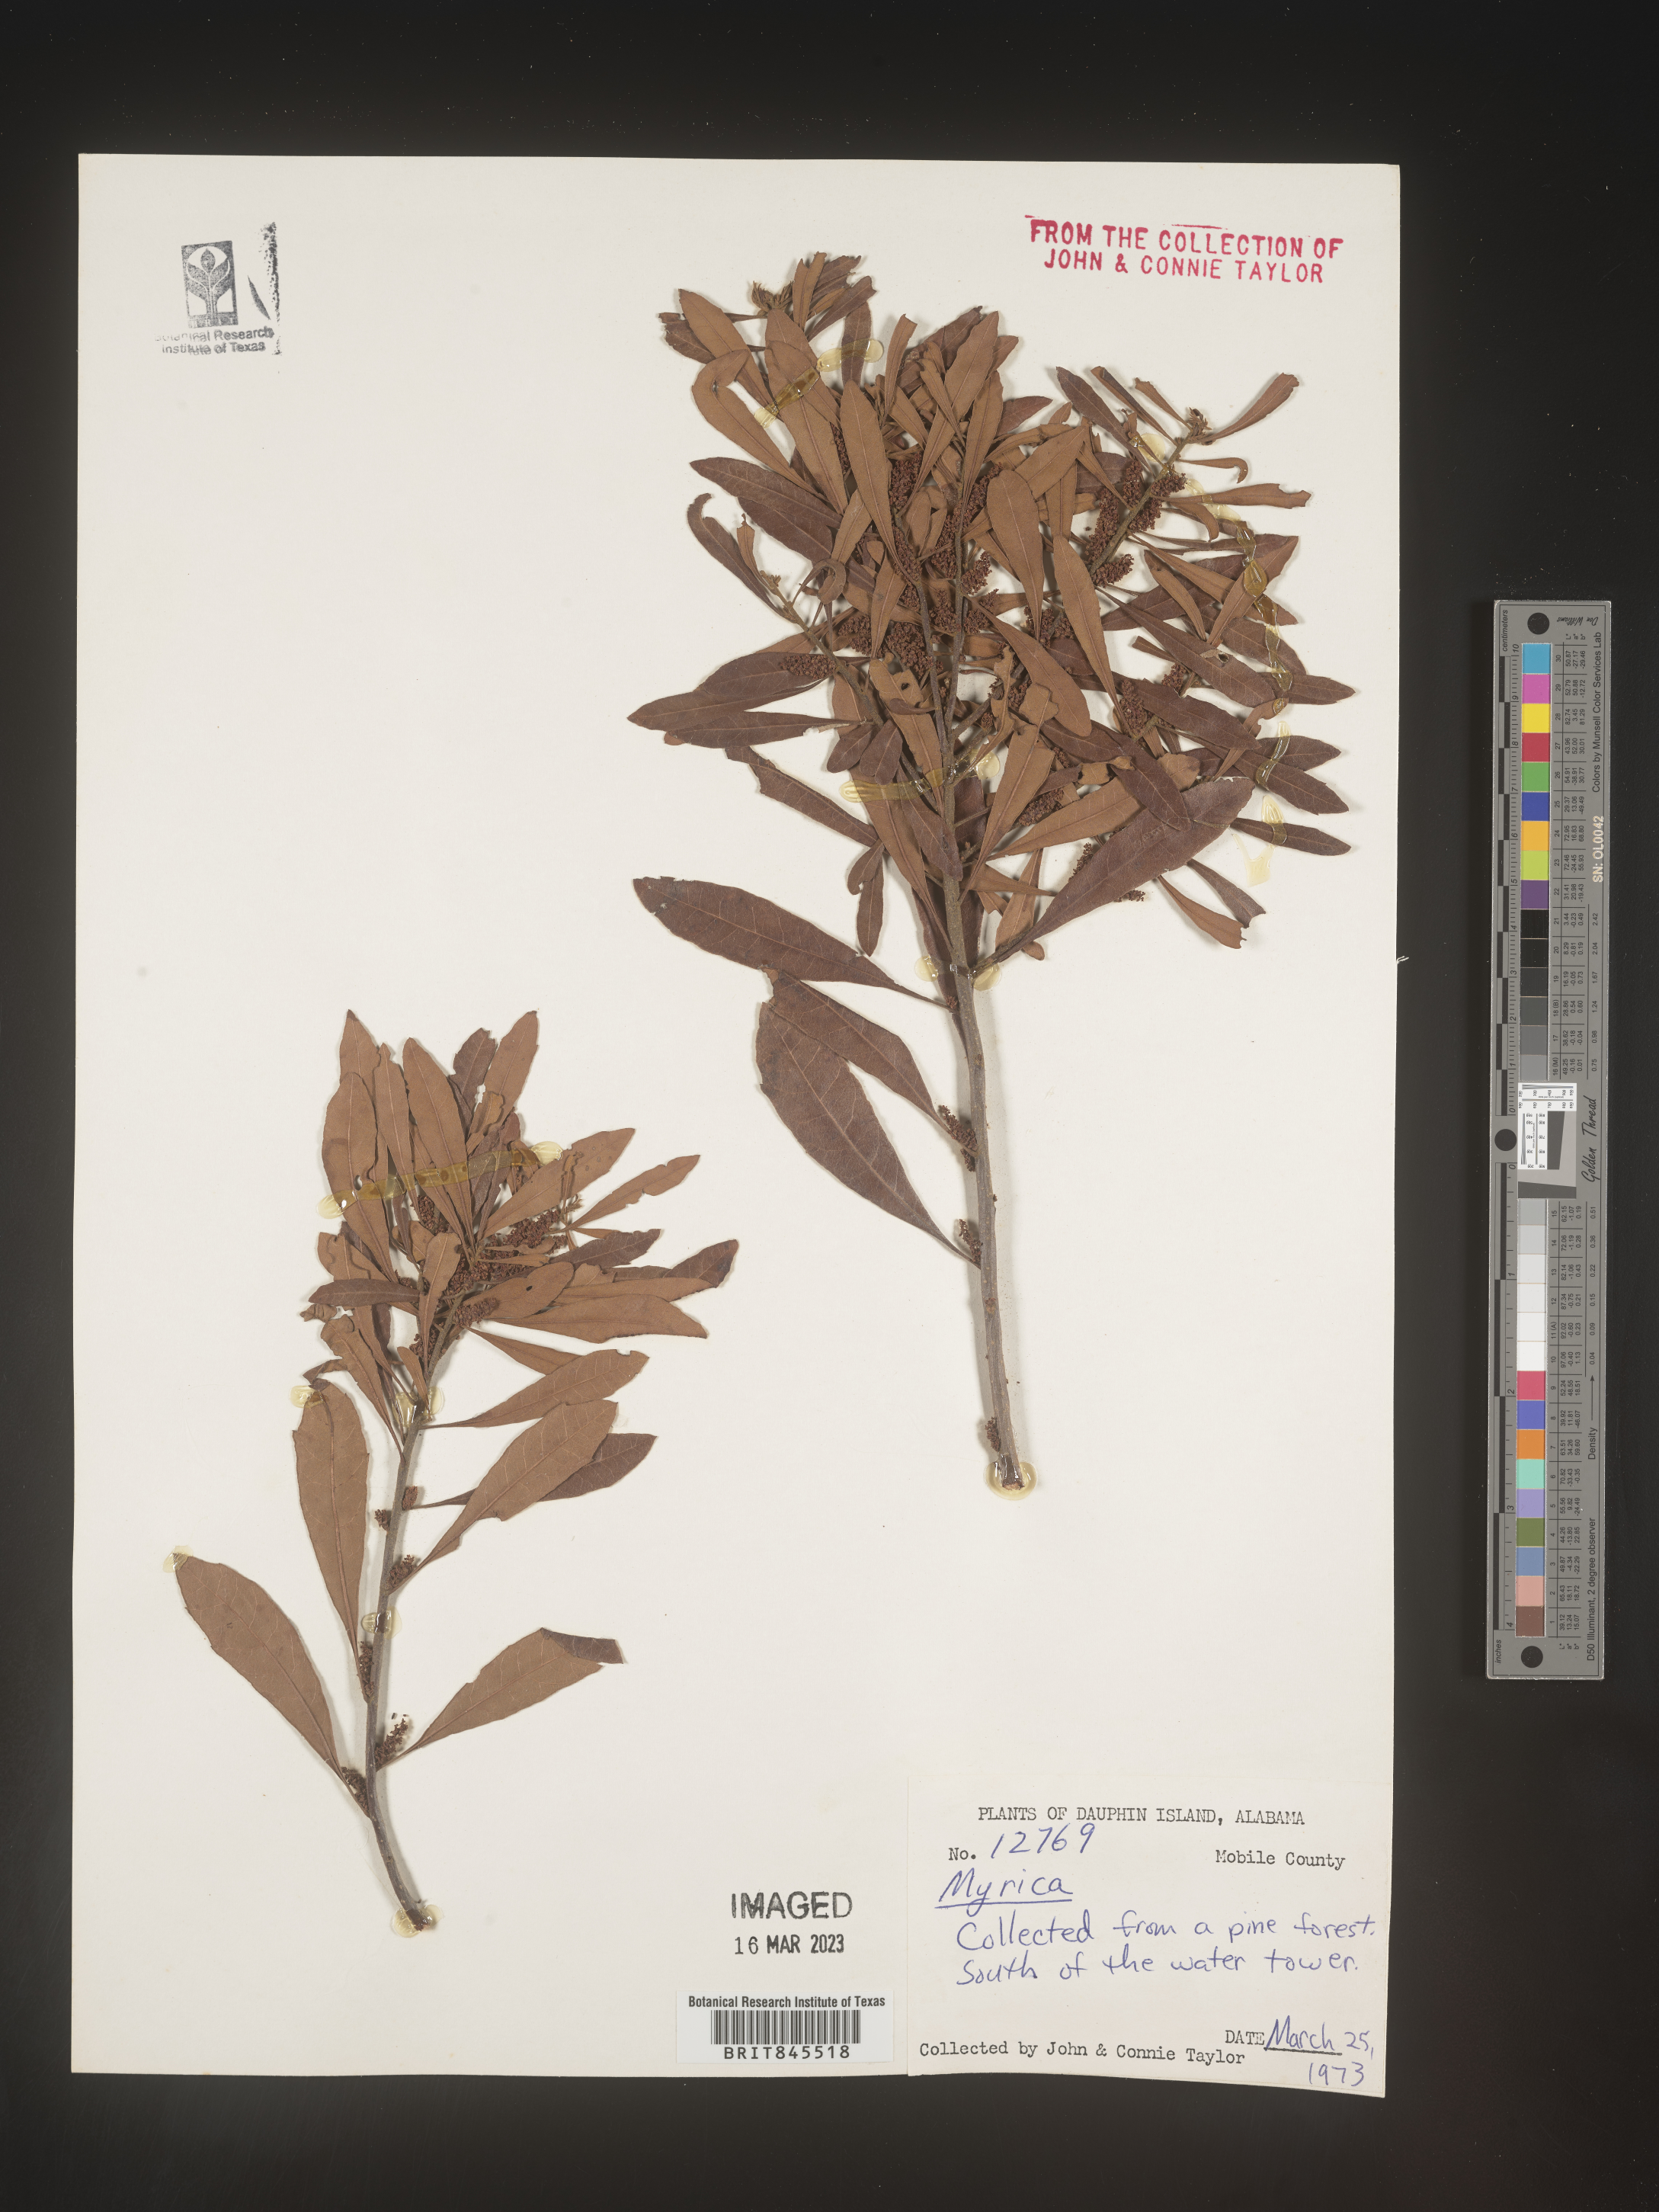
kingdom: Plantae
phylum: Tracheophyta
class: Magnoliopsida
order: Fagales
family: Myricaceae
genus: Myrica
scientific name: Myrica
